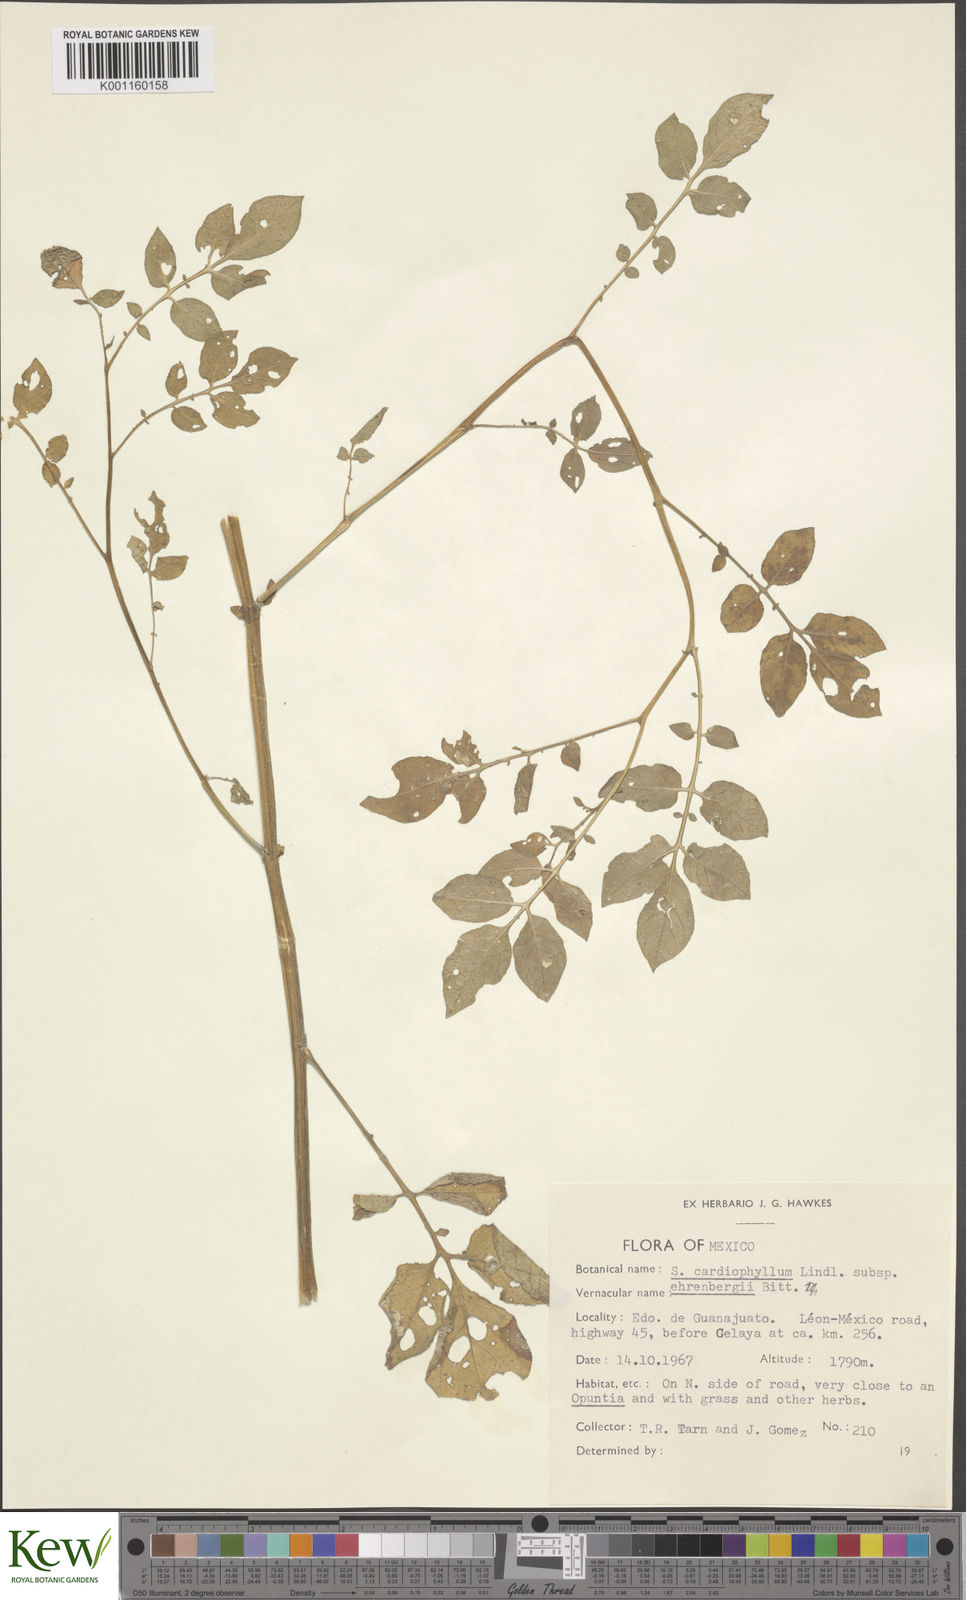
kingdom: Plantae
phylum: Tracheophyta
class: Magnoliopsida
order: Solanales
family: Solanaceae
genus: Solanum
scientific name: Solanum cardiophyllum
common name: Heartleaf horsenettle
